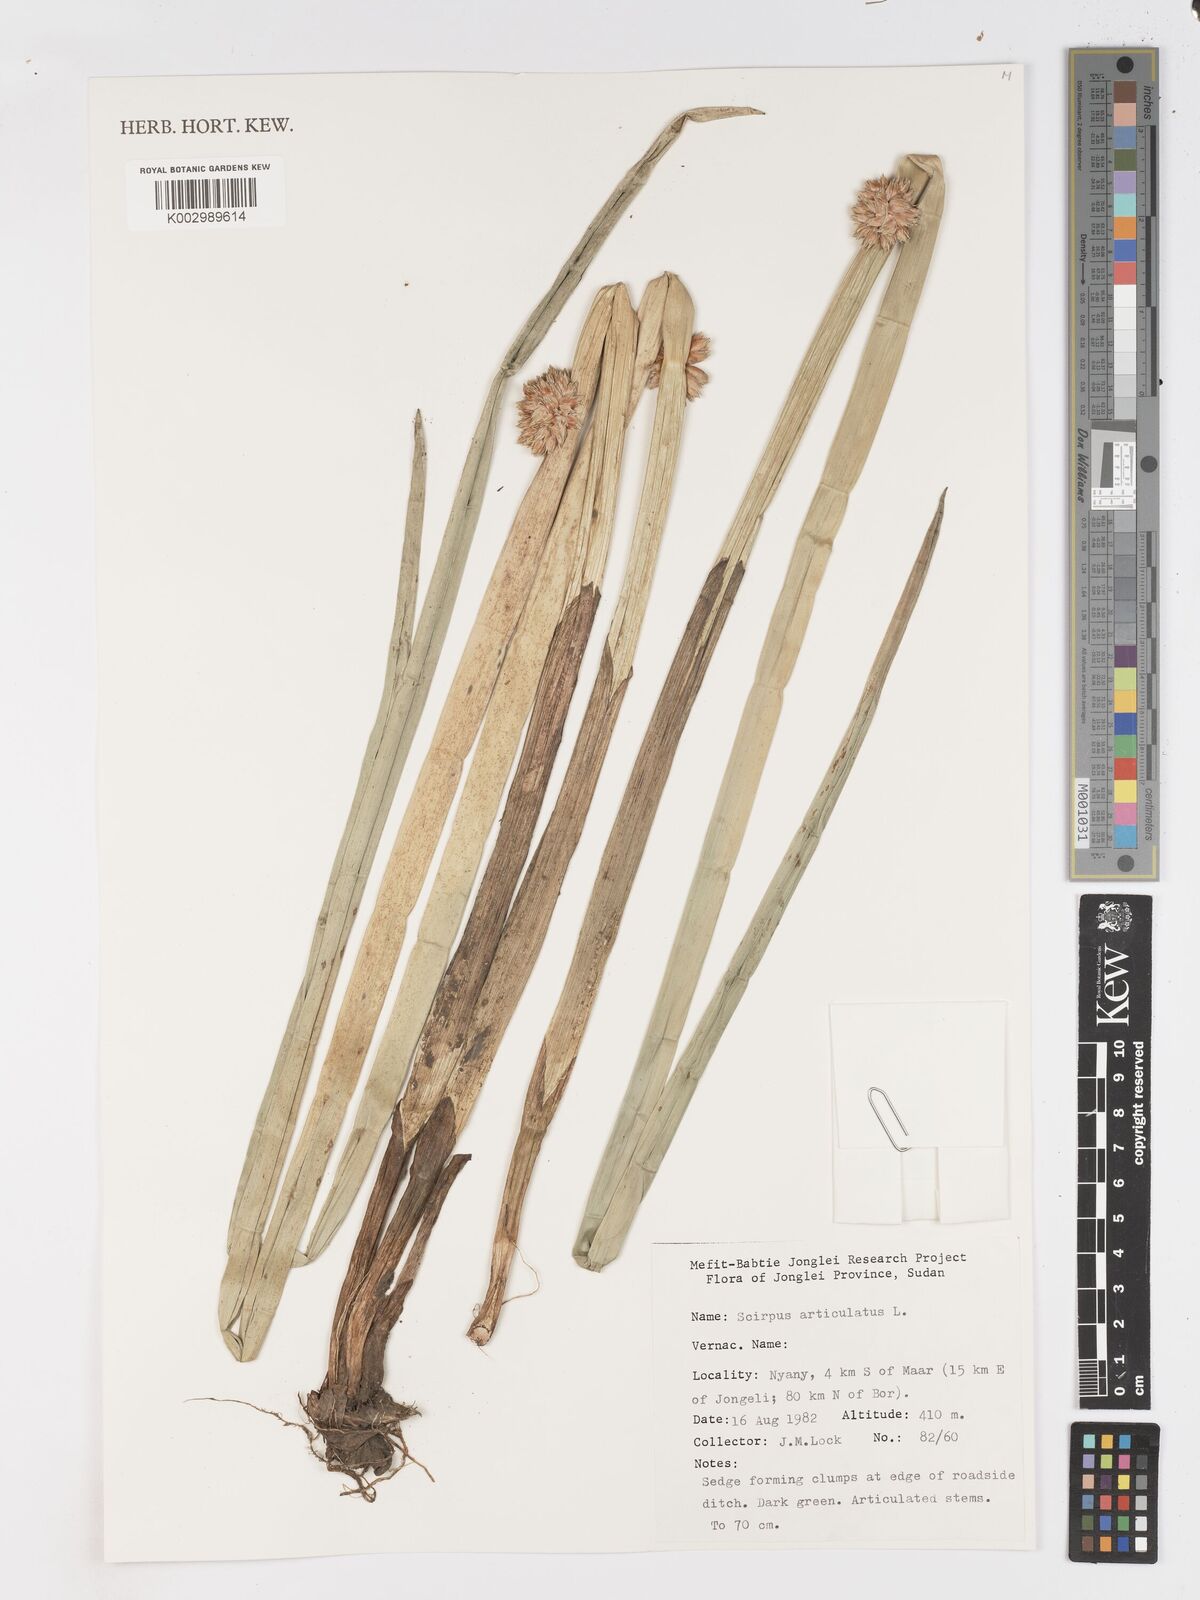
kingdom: Plantae
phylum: Tracheophyta
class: Liliopsida
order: Poales
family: Cyperaceae
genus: Schoenoplectiella
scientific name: Schoenoplectiella articulata
